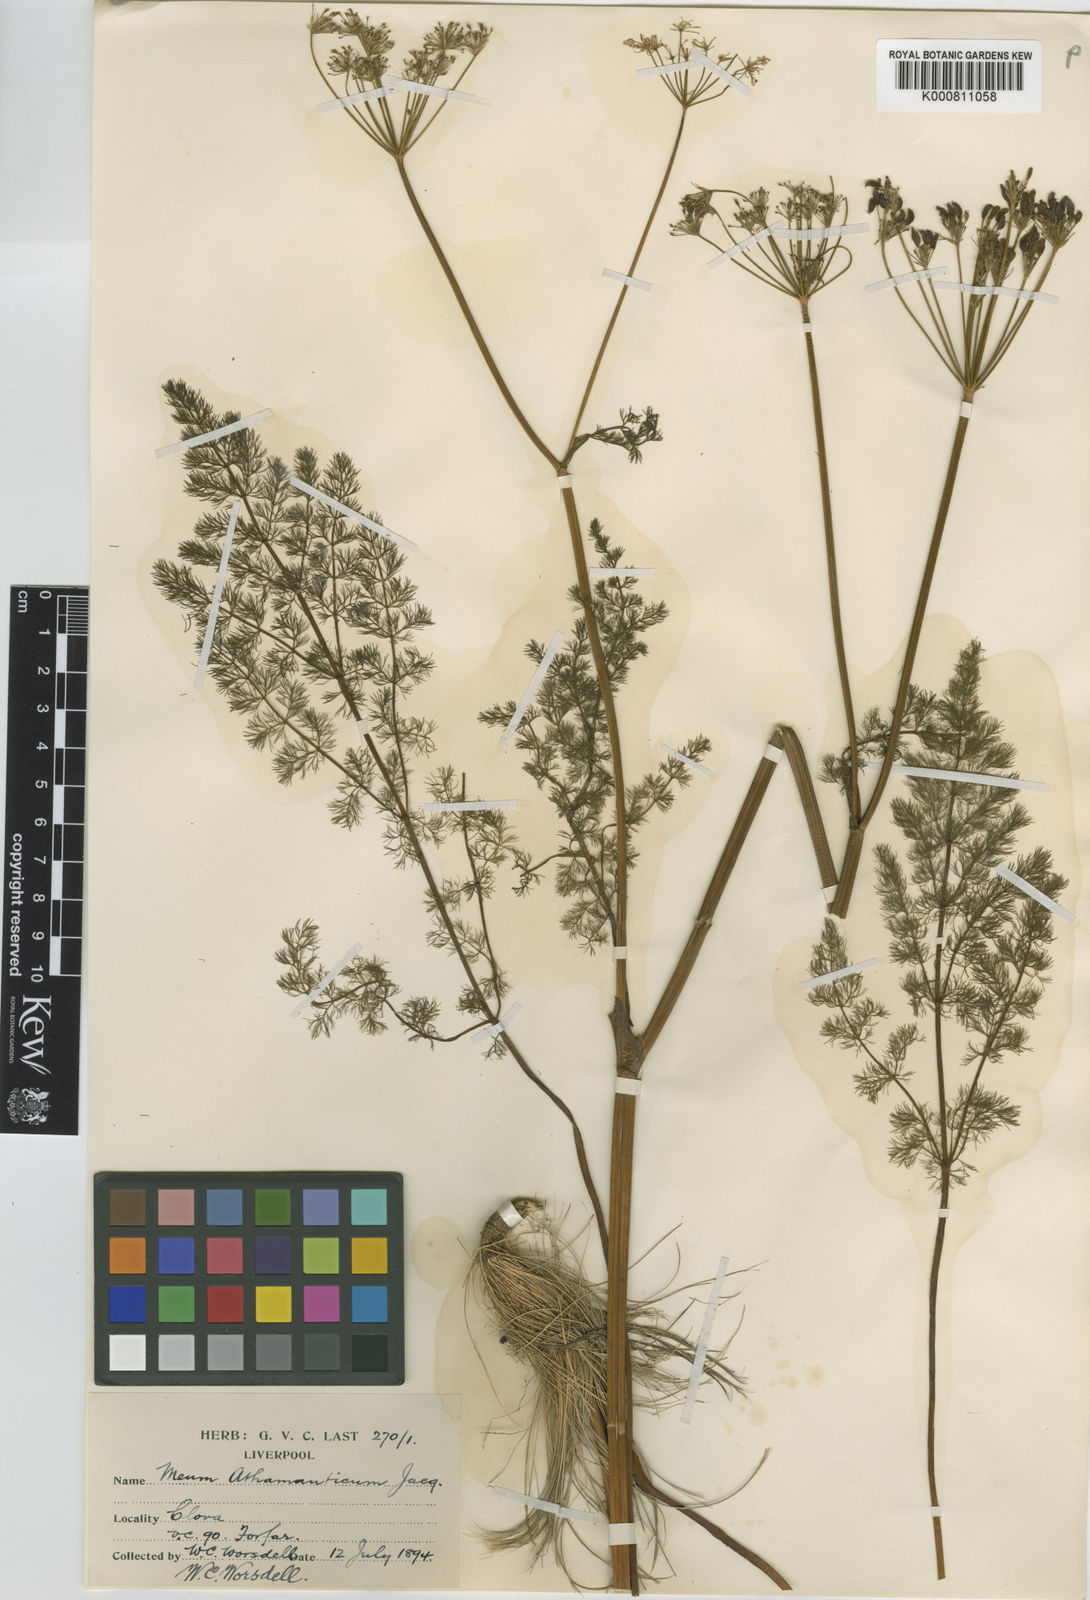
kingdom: Plantae
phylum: Tracheophyta
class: Magnoliopsida
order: Apiales
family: Apiaceae
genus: Meum
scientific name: Meum athamanticum
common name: Spignel
